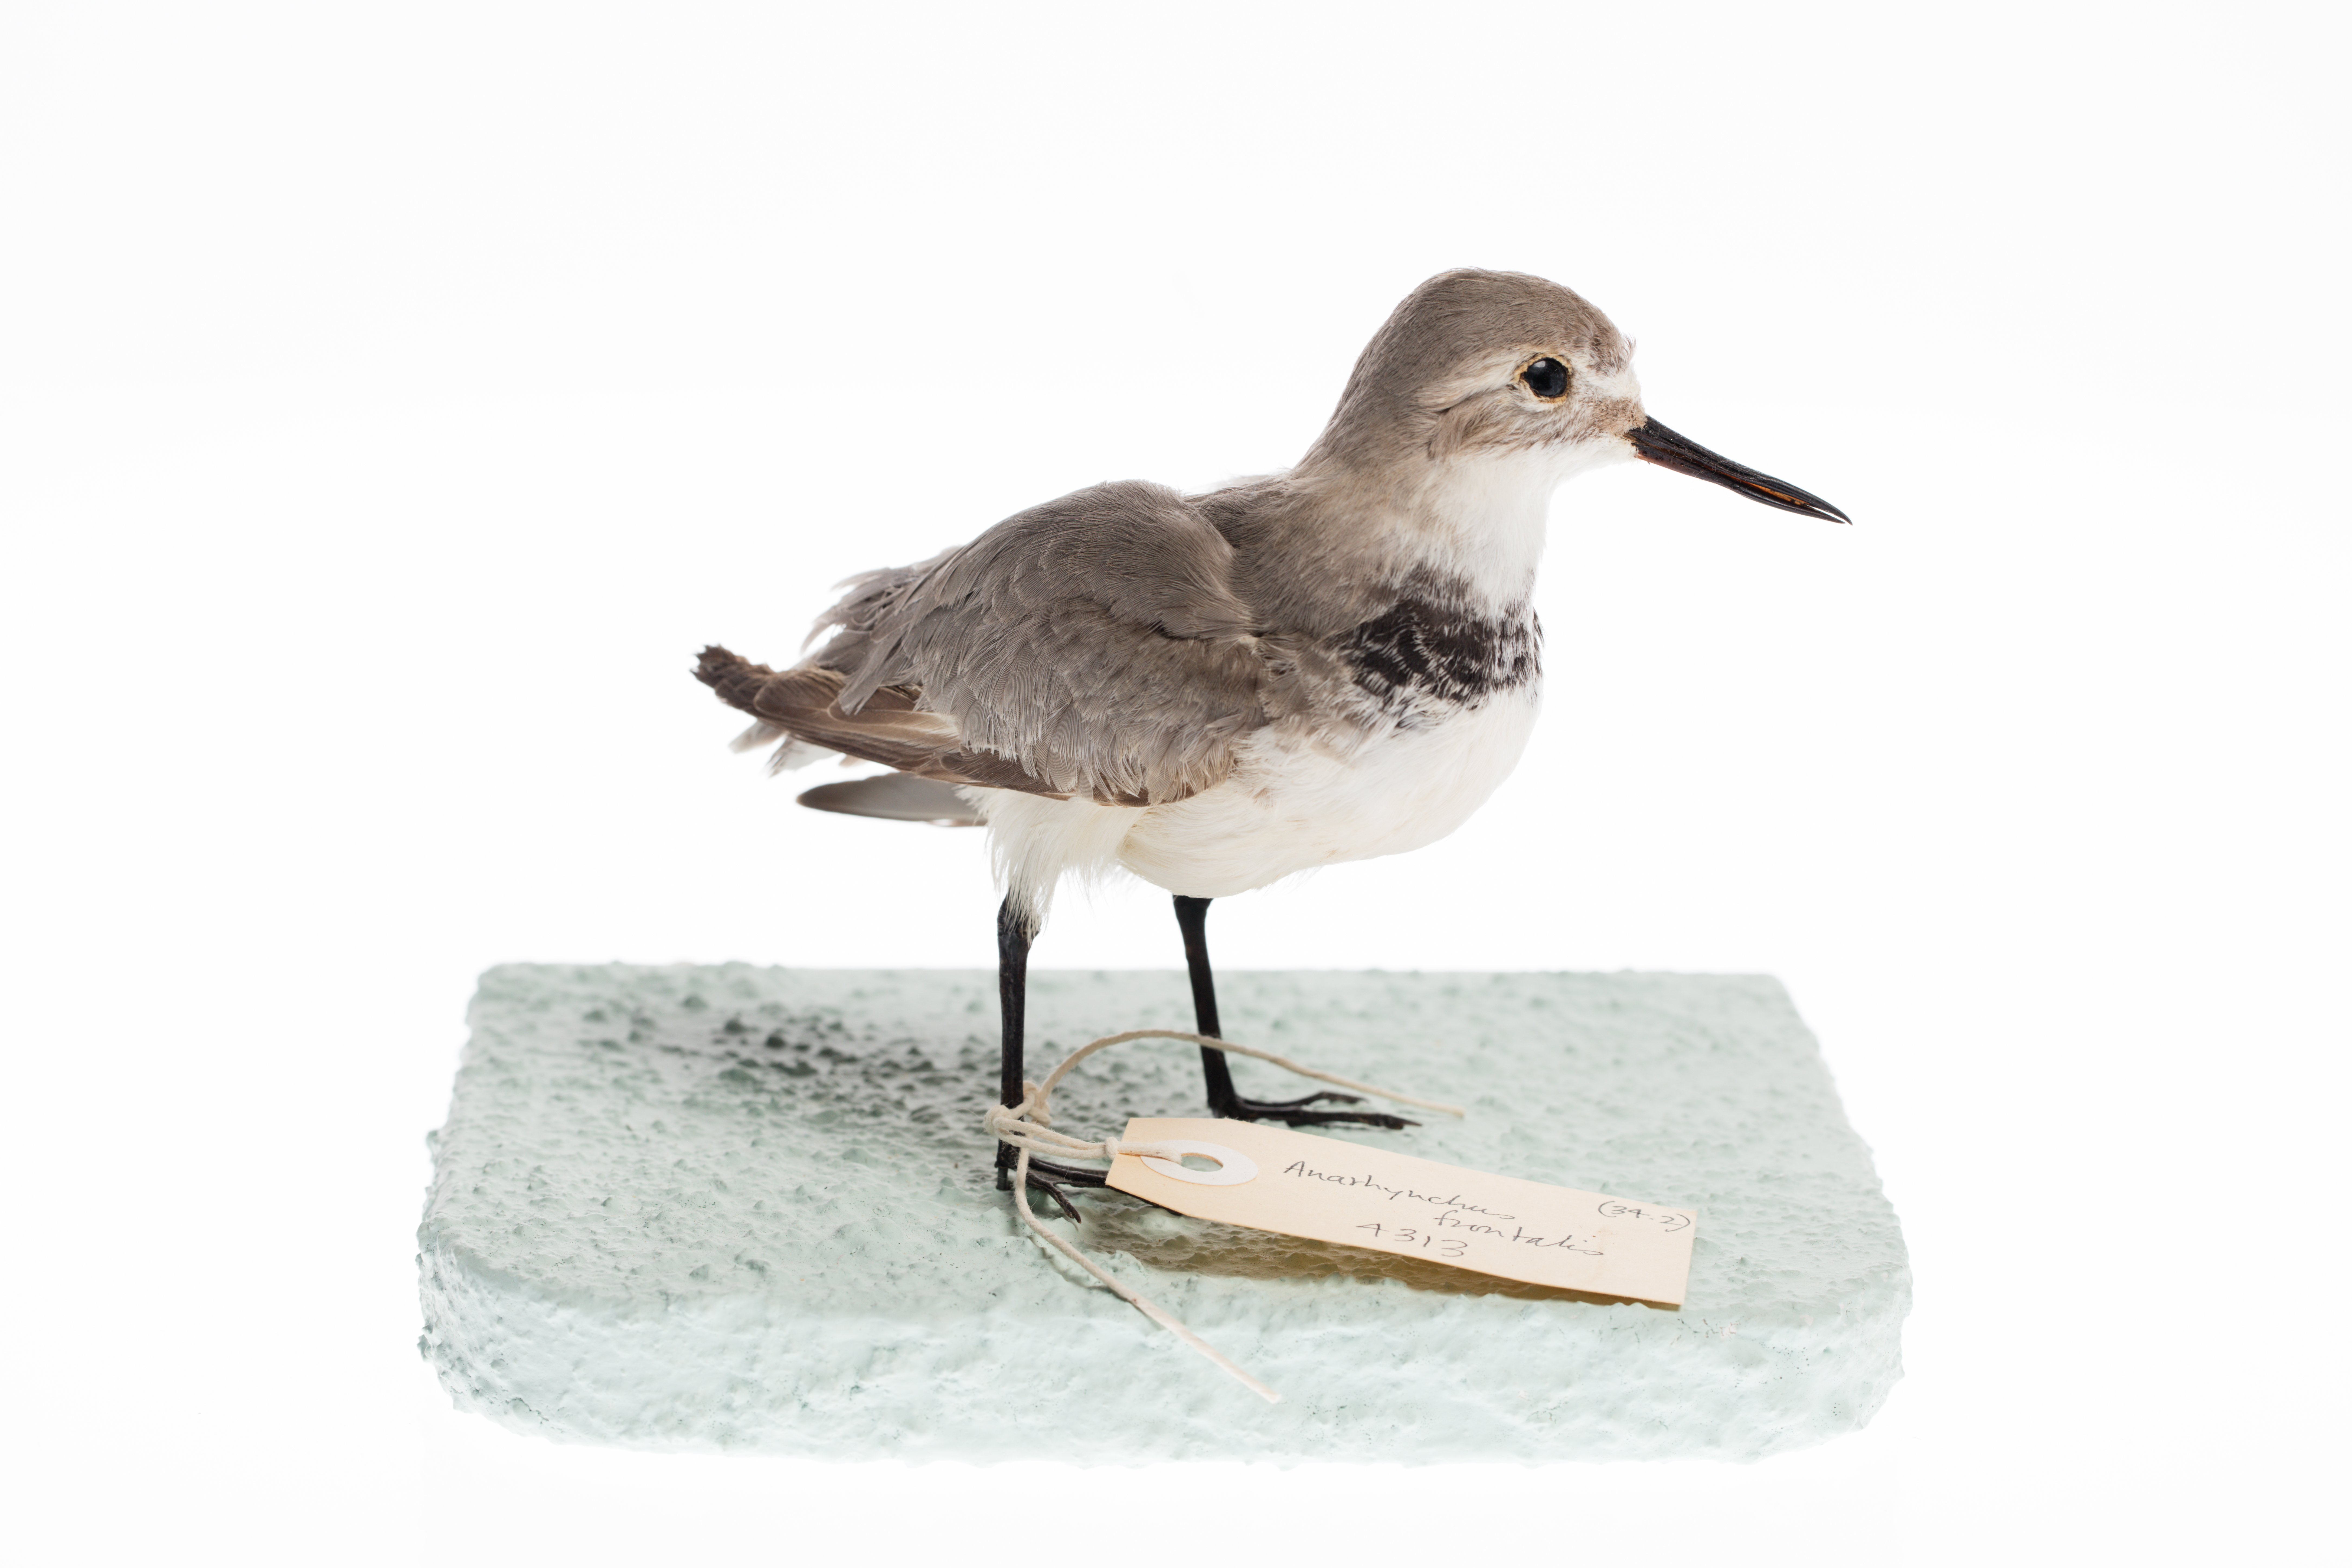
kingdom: Animalia
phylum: Chordata
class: Aves
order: Charadriiformes
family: Charadriidae
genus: Charadrius
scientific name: Charadrius frontalis
